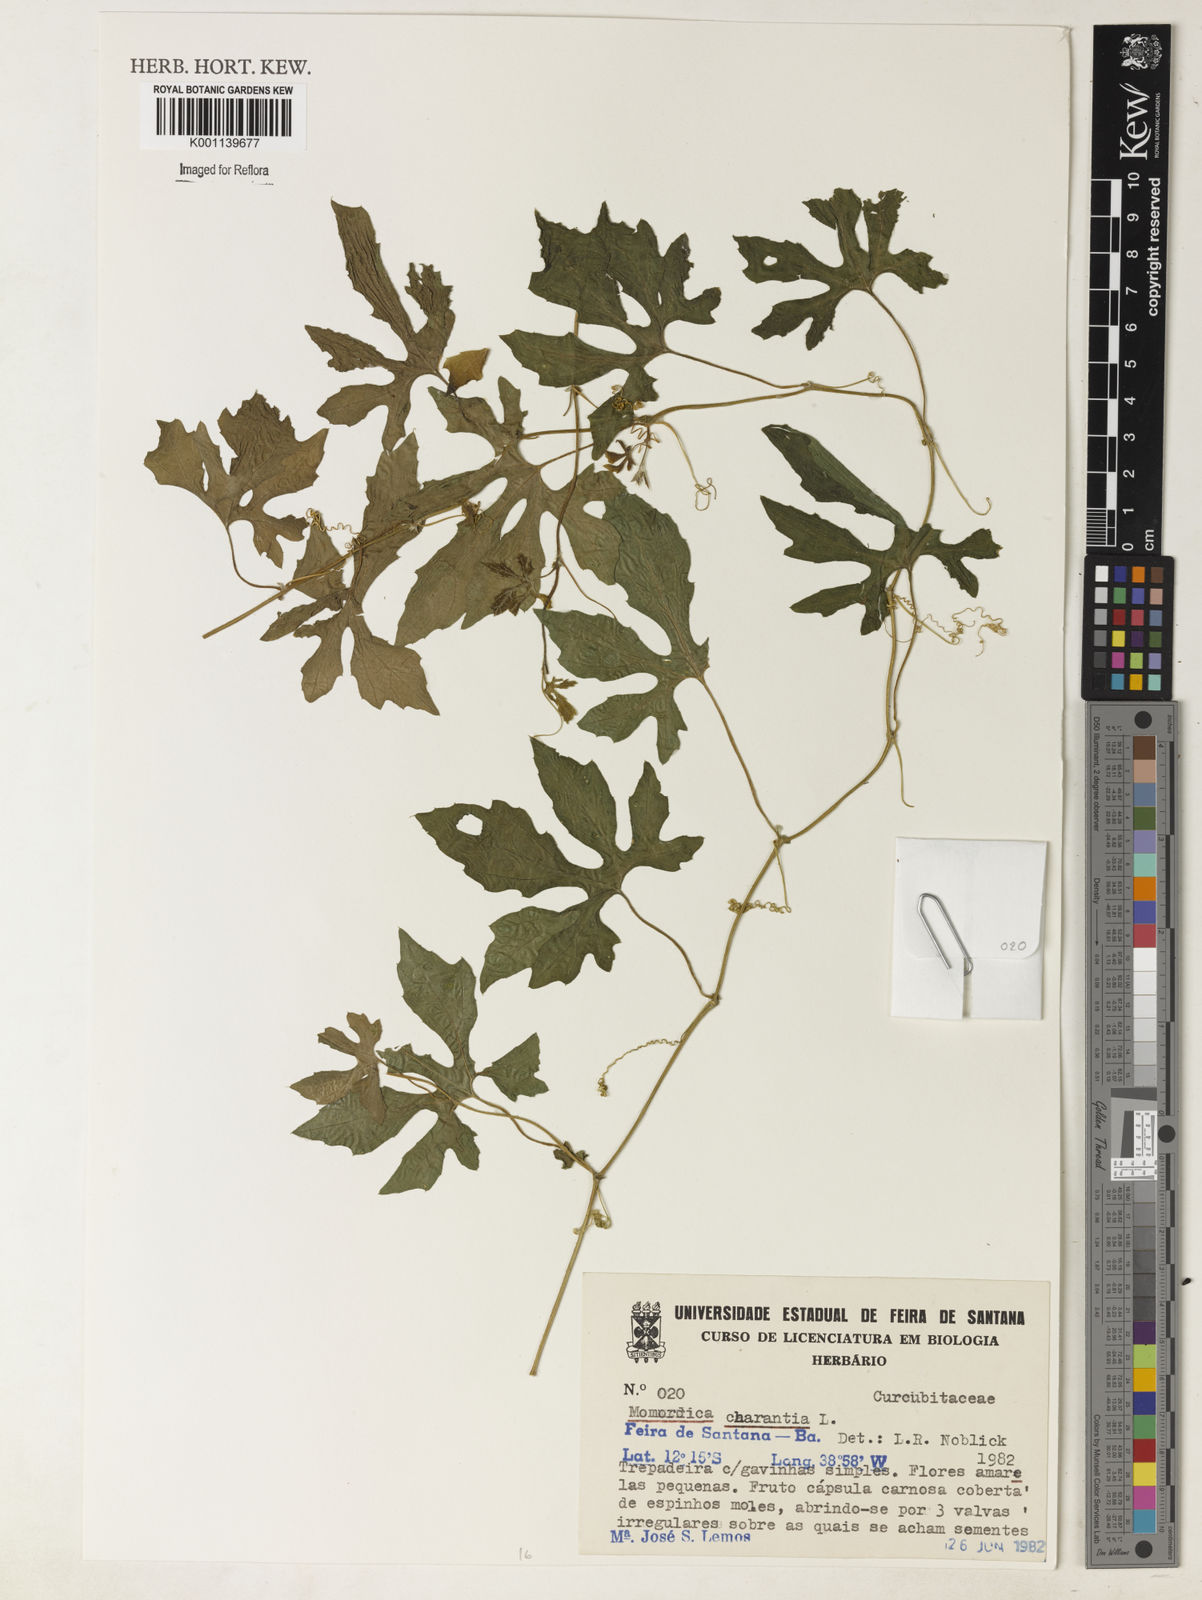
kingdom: Plantae
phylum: Tracheophyta
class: Magnoliopsida
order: Cucurbitales
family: Cucurbitaceae
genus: Momordica
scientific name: Momordica charantia
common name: Balsampear
